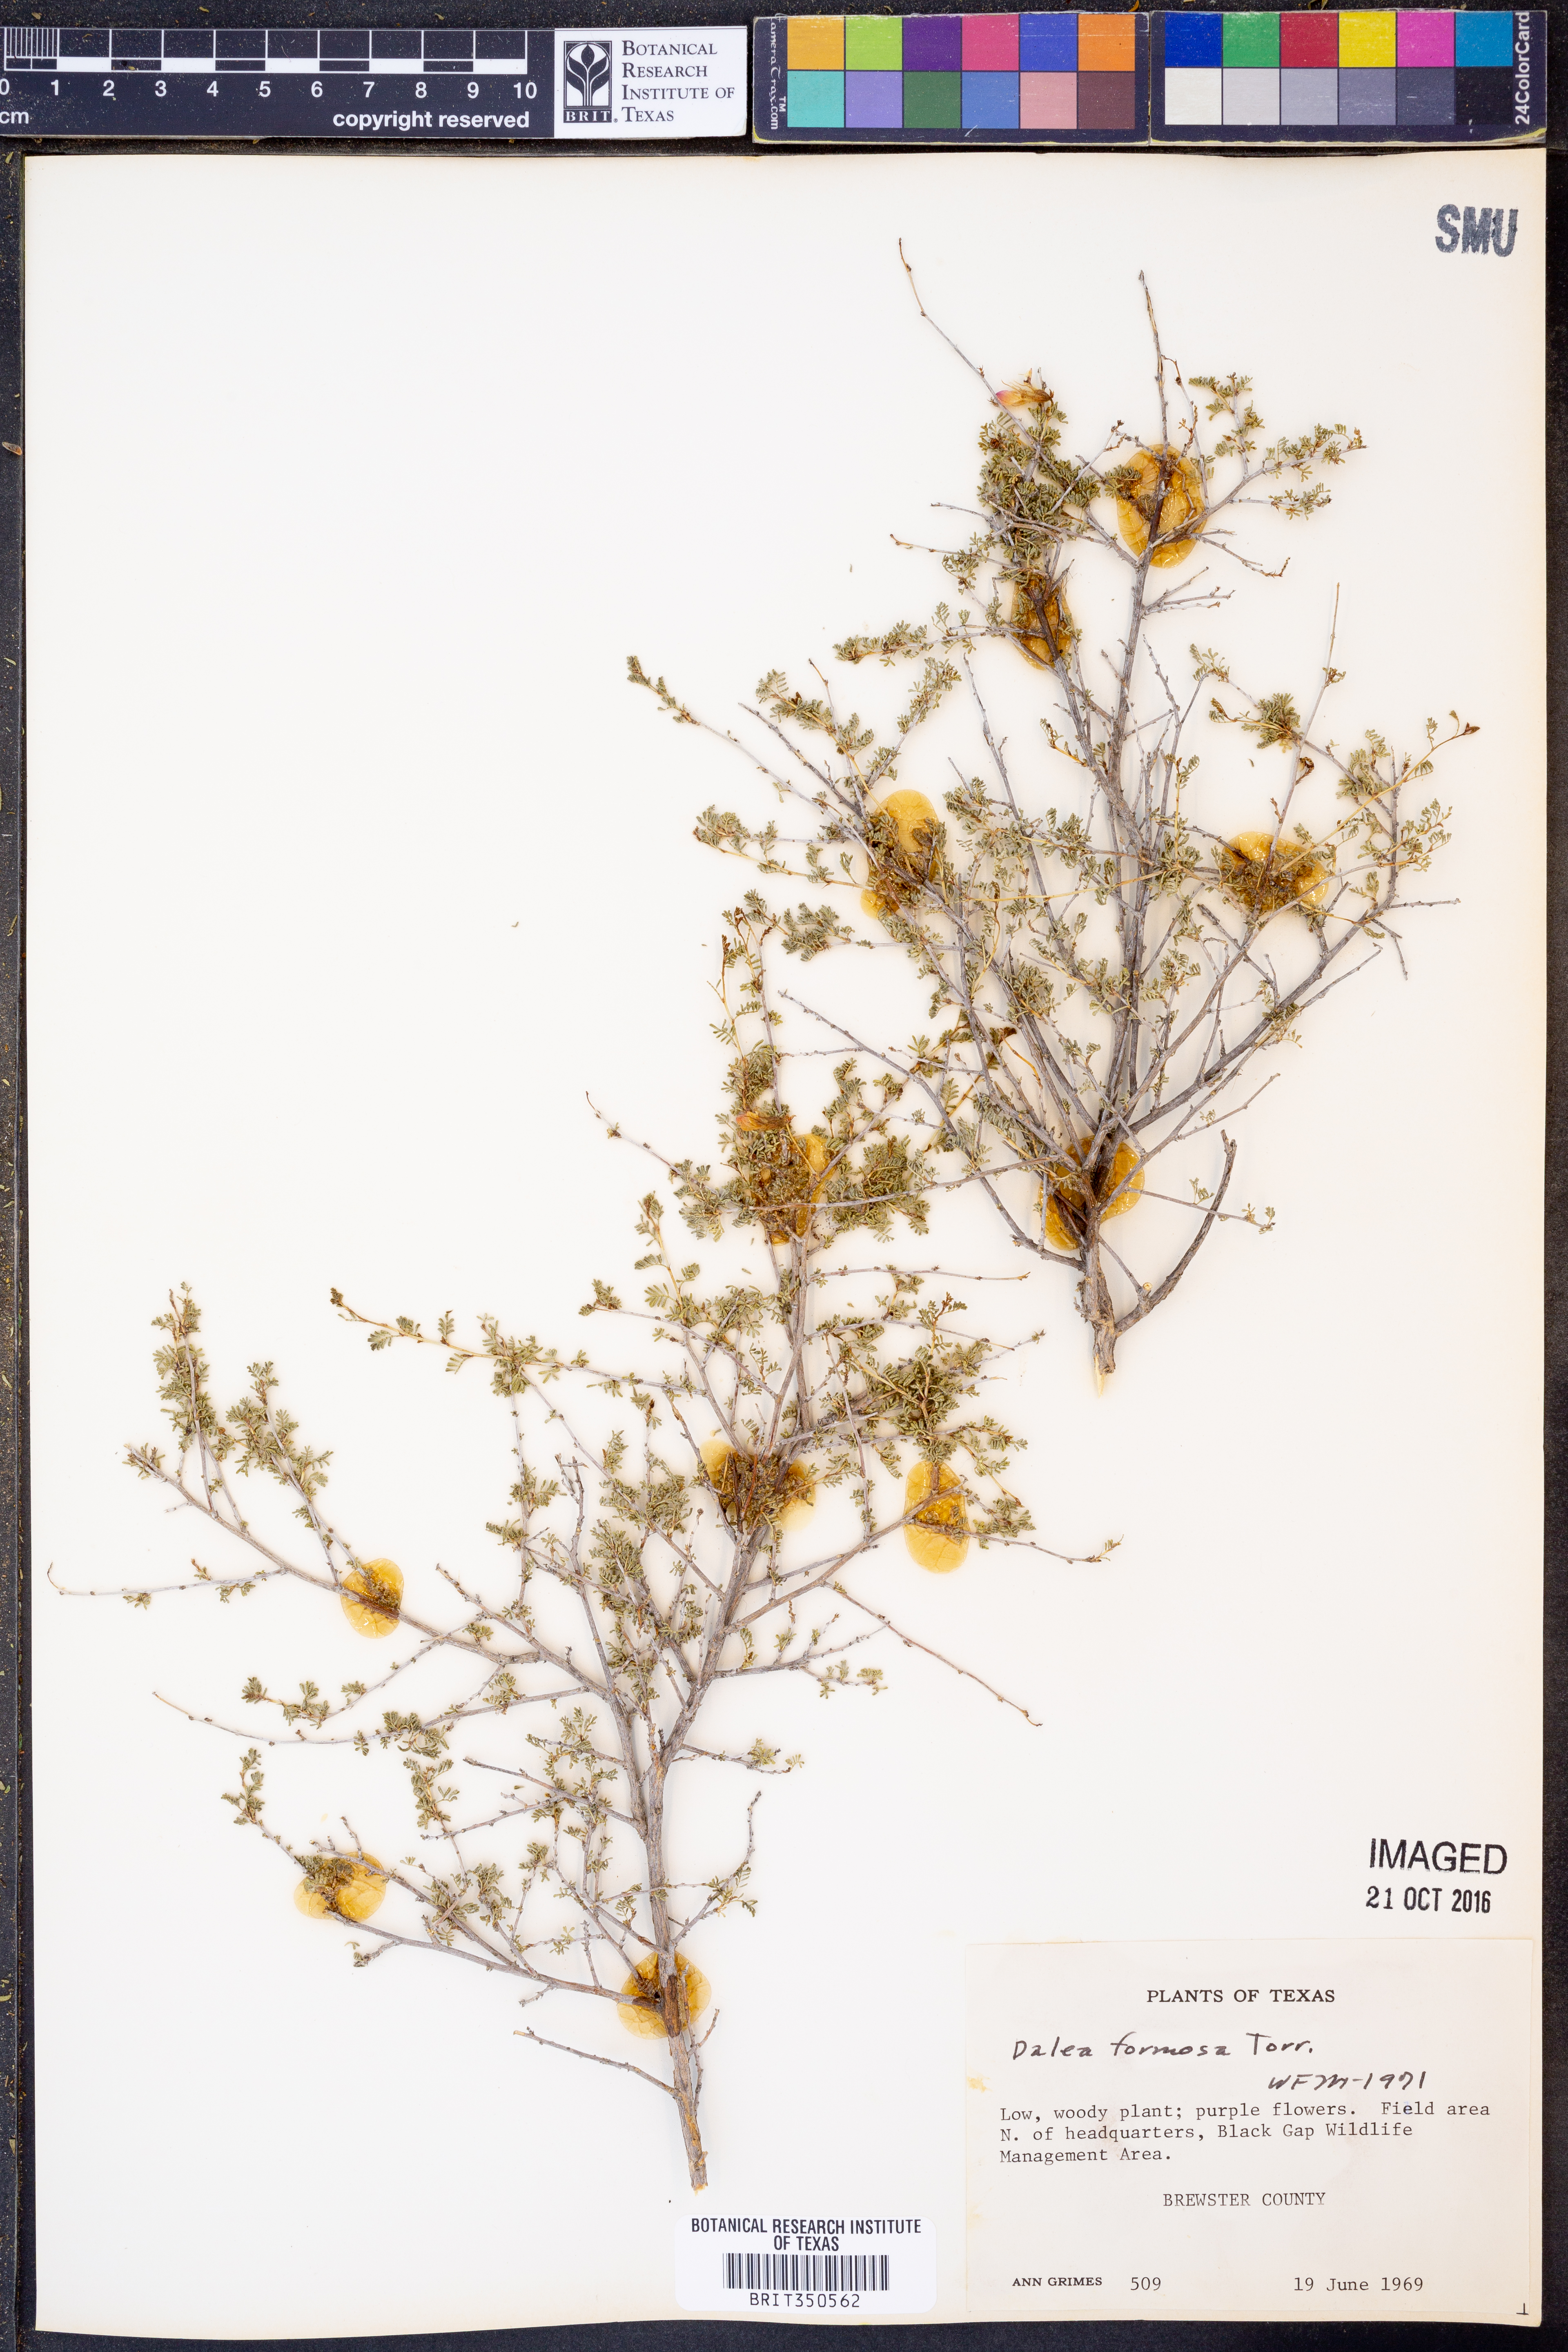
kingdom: Plantae
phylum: Tracheophyta
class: Magnoliopsida
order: Fabales
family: Fabaceae
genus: Dalea
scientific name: Dalea formosa
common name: Feather-plume dalea
